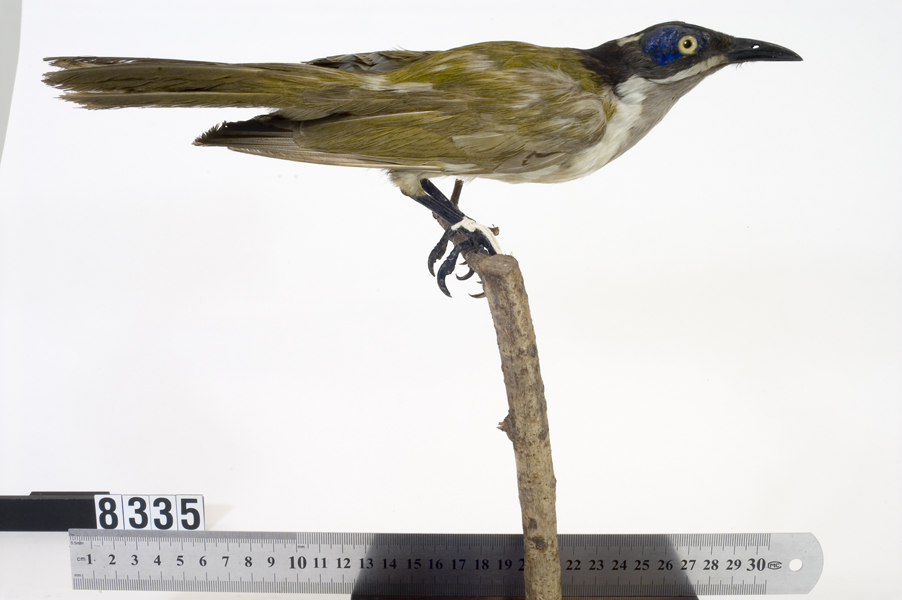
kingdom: Animalia
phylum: Chordata
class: Aves
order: Passeriformes
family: Meliphagidae
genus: Entomyzon
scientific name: Entomyzon cyanotis
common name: Blue-faced honeyeater
